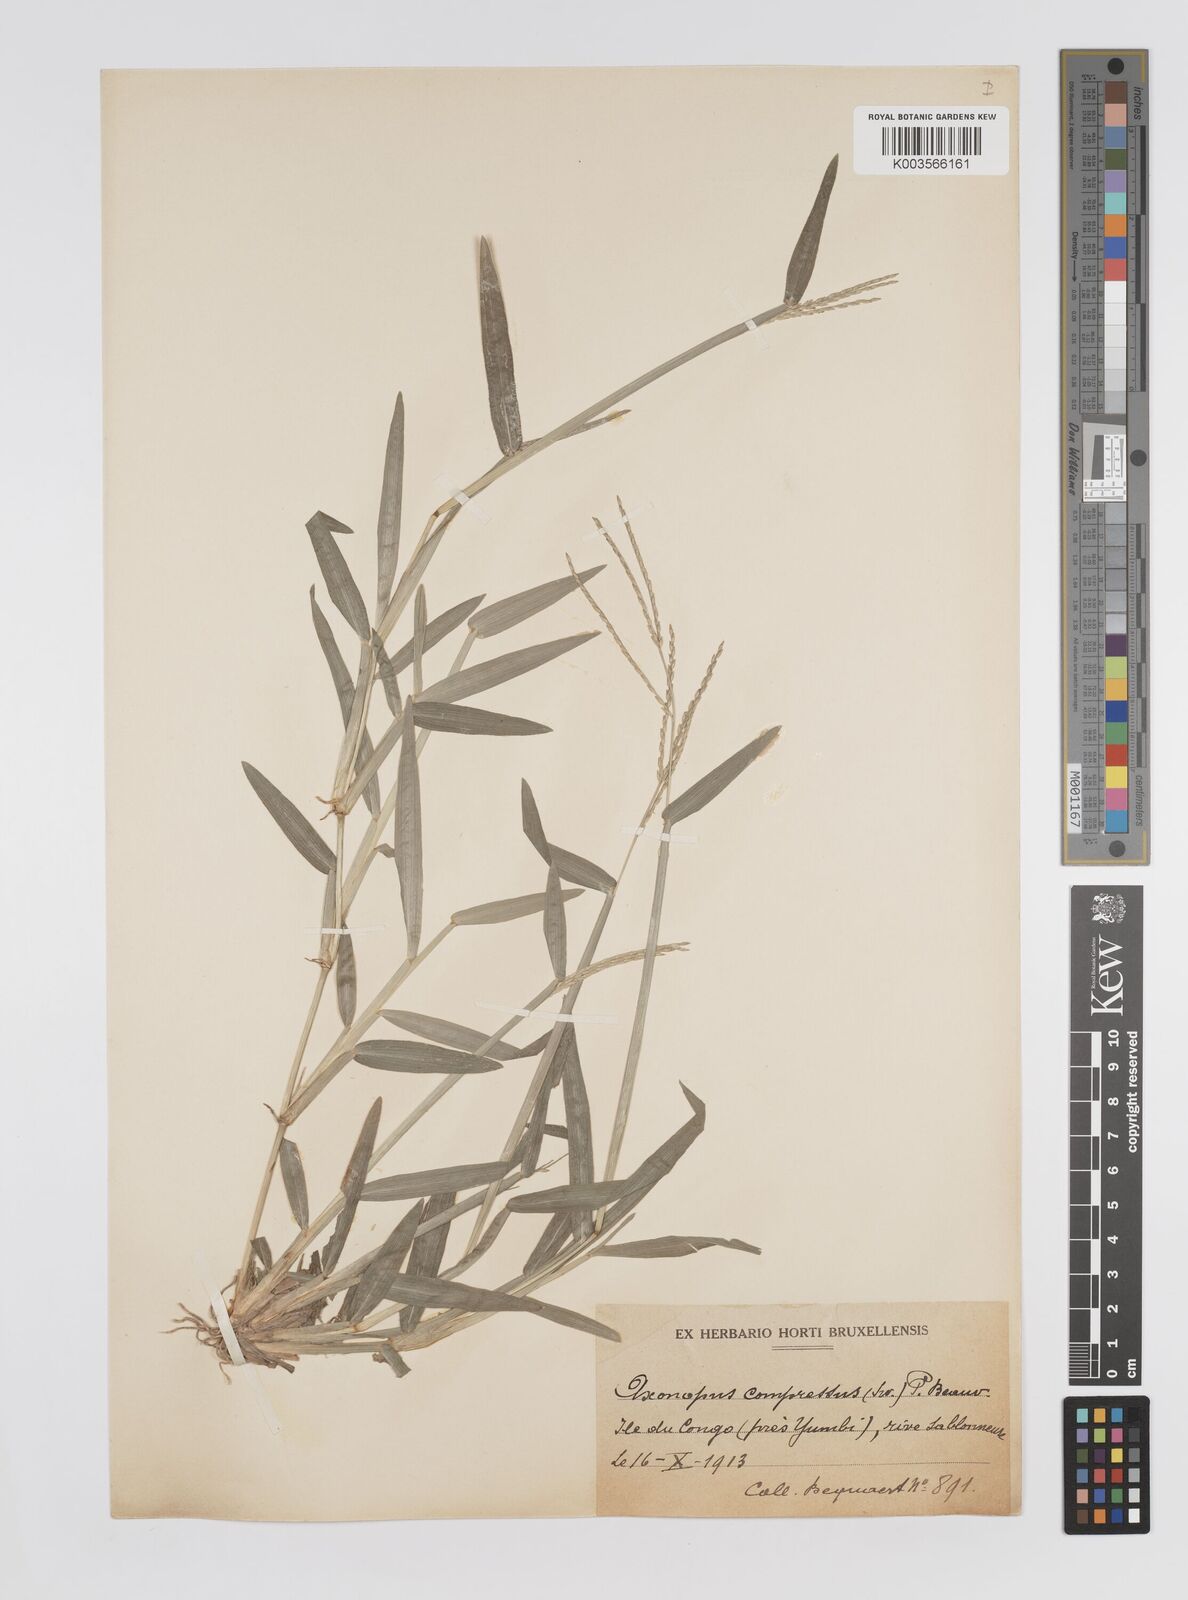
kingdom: Plantae
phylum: Tracheophyta
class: Liliopsida
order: Poales
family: Poaceae
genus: Axonopus
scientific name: Axonopus flexuosus
